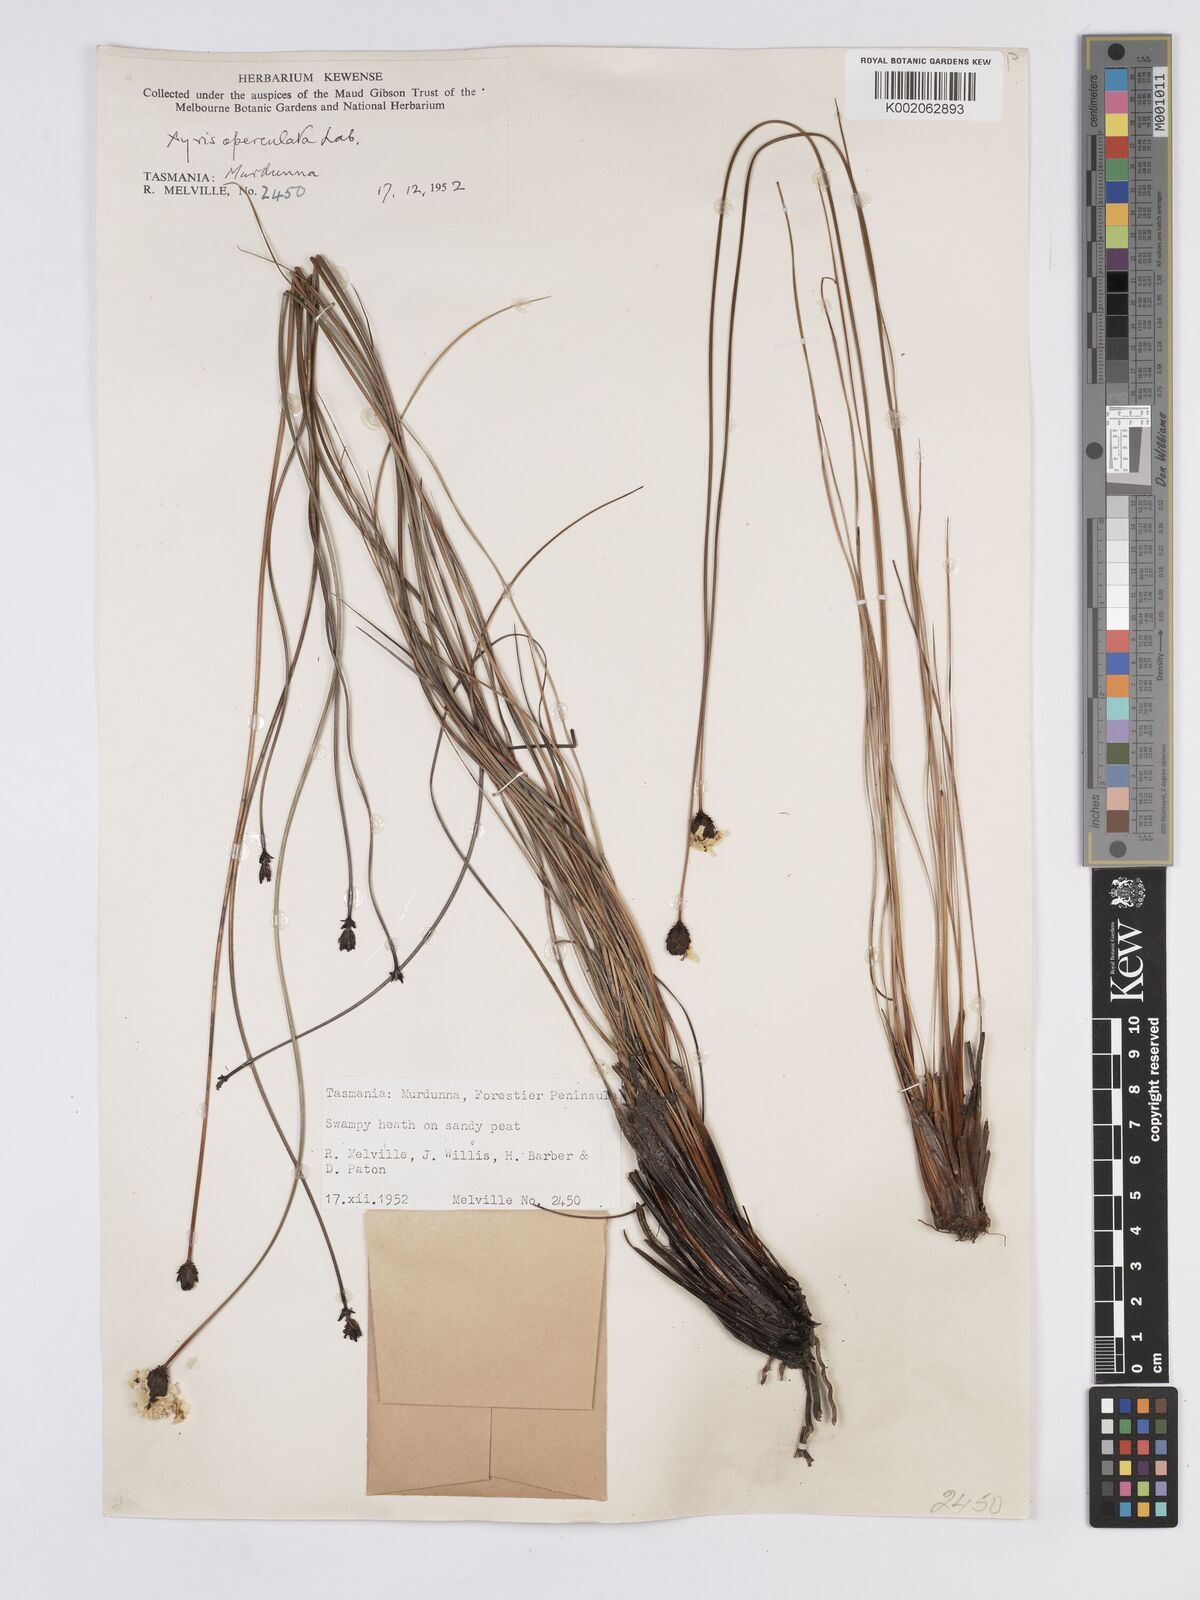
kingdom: Plantae
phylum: Tracheophyta
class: Liliopsida
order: Poales
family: Xyridaceae
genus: Xyris
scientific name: Xyris operculata
